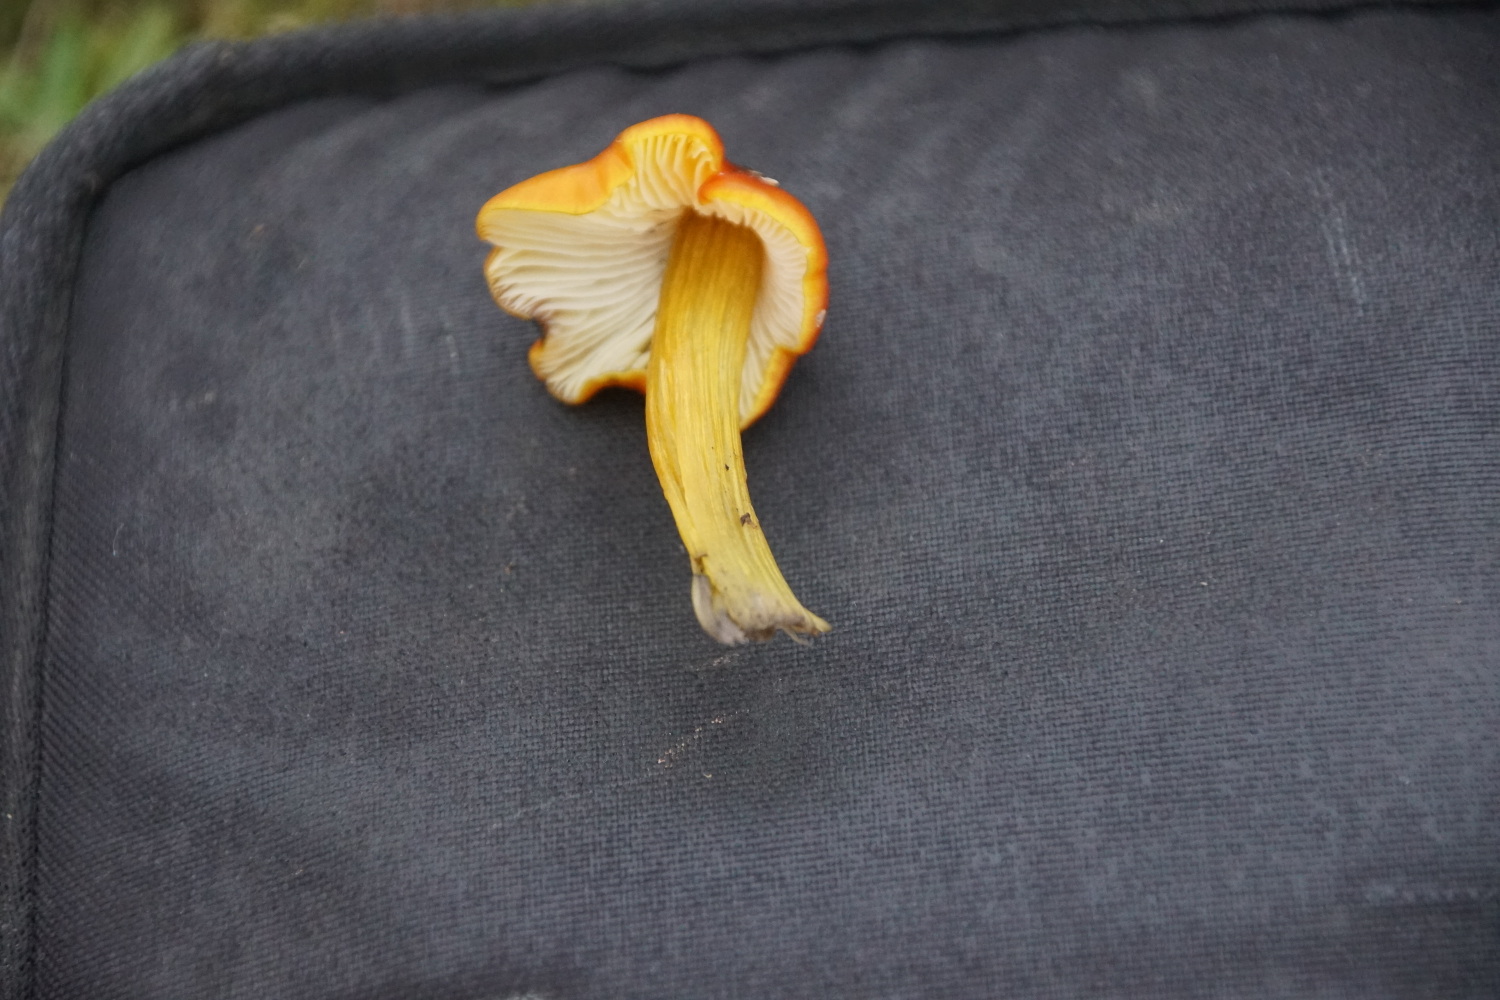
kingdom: Fungi
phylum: Basidiomycota
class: Agaricomycetes
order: Agaricales
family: Hygrophoraceae
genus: Hygrocybe
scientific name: Hygrocybe conica
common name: kegle-vokshat
